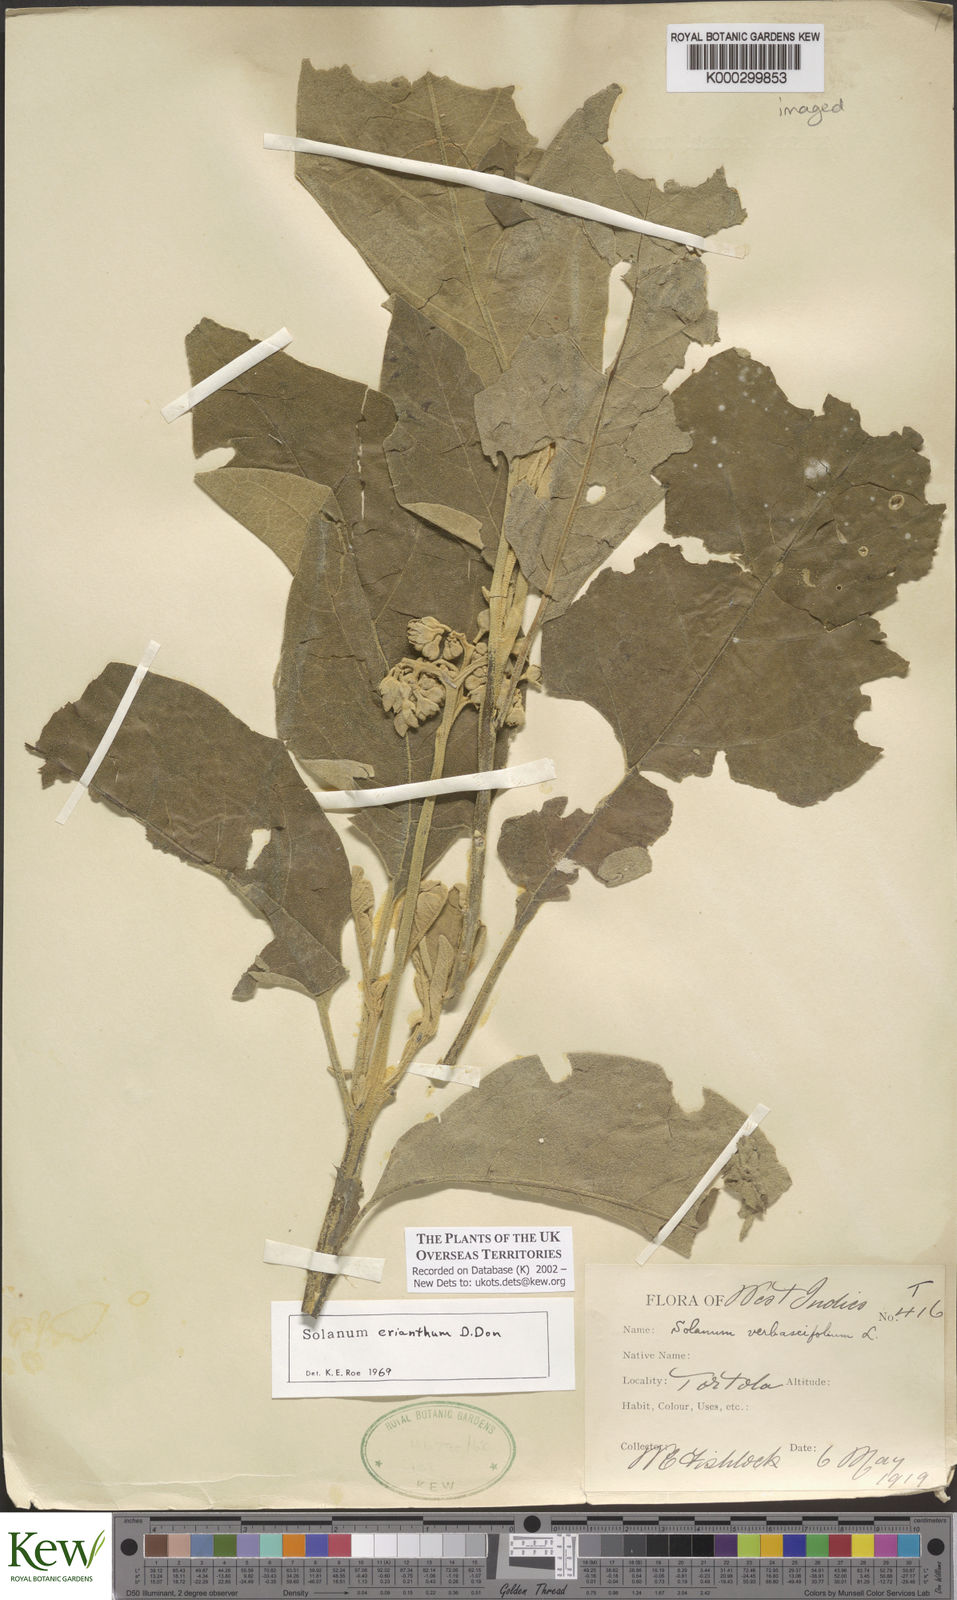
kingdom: Plantae
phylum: Tracheophyta
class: Magnoliopsida
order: Solanales
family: Solanaceae
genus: Solanum
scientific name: Solanum erianthum
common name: Tobacco-tree
